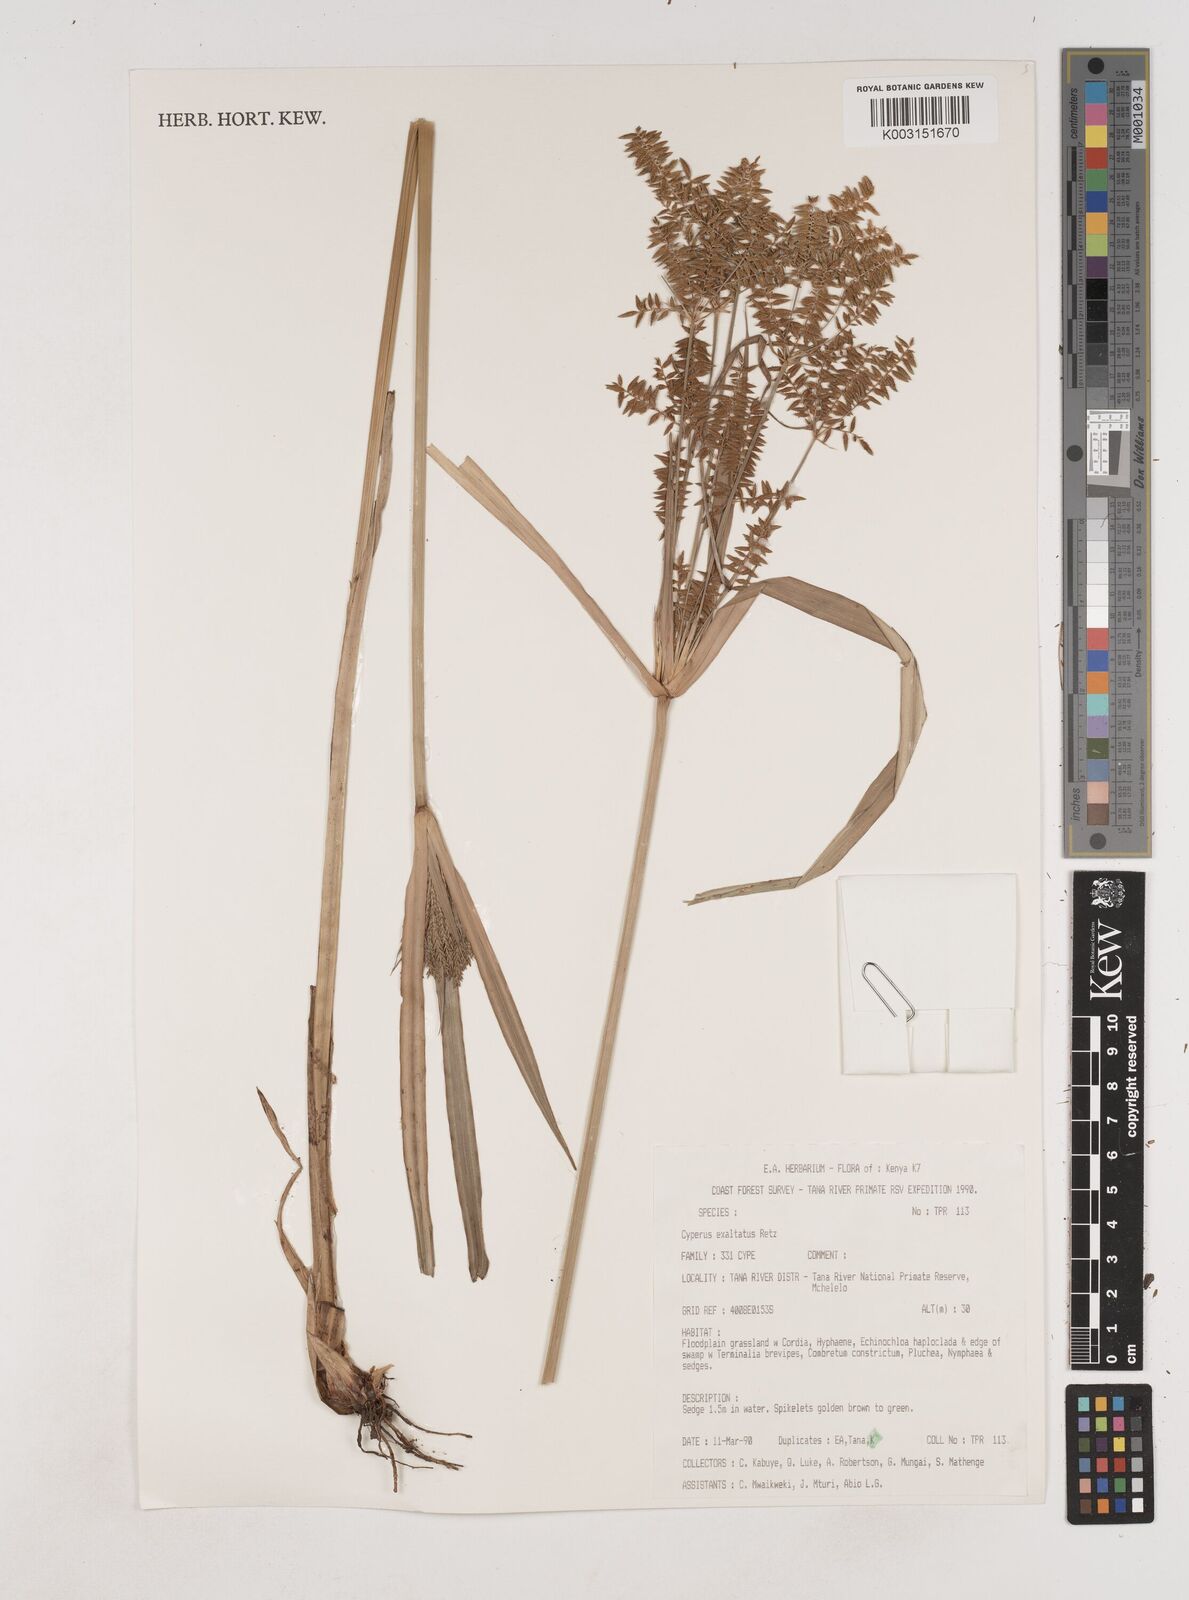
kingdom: Plantae
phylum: Tracheophyta
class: Liliopsida
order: Poales
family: Cyperaceae
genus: Cyperus
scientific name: Cyperus exaltatus
